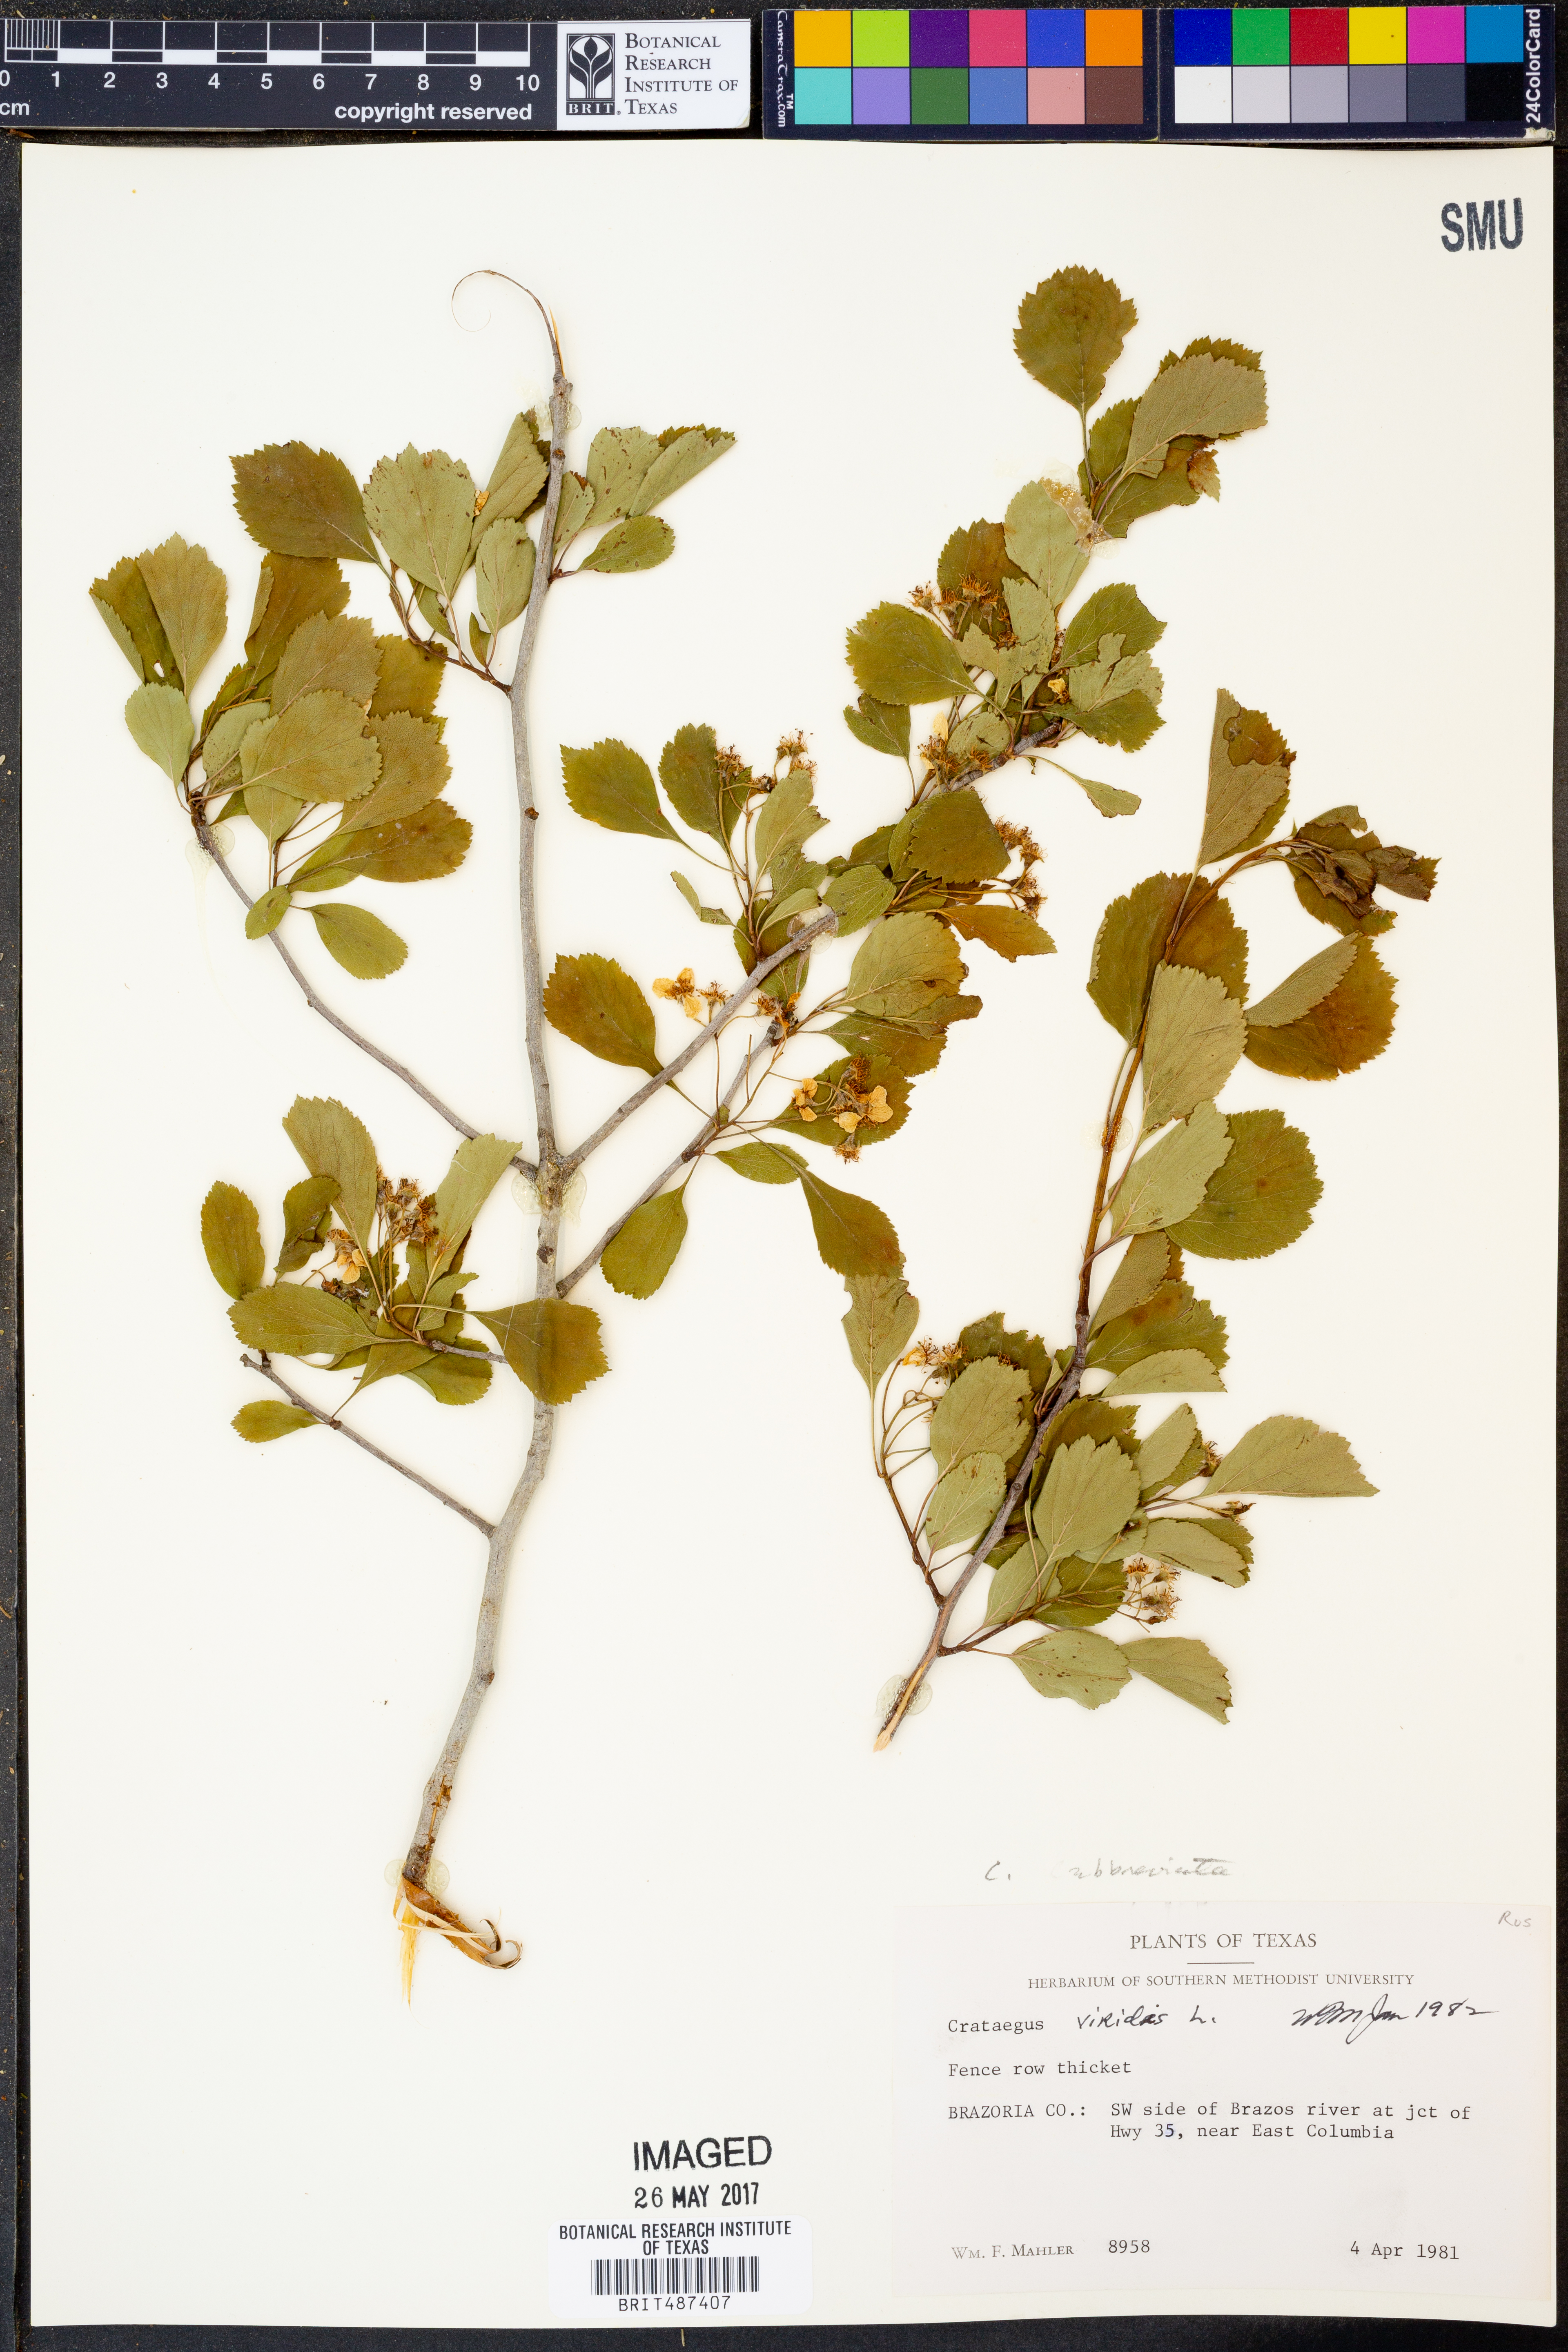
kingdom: Plantae
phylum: Tracheophyta
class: Magnoliopsida
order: Rosales
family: Rosaceae
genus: Crataegus
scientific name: Crataegus viridis
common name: Southernthorn
